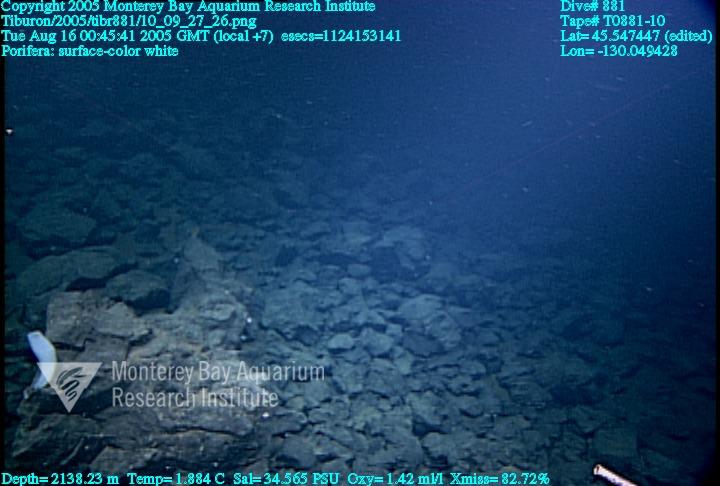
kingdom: Animalia
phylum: Porifera
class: Hexactinellida
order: Lyssacinosida
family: Euplectellidae
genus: Amphidiscella
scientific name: Amphidiscella lecus
